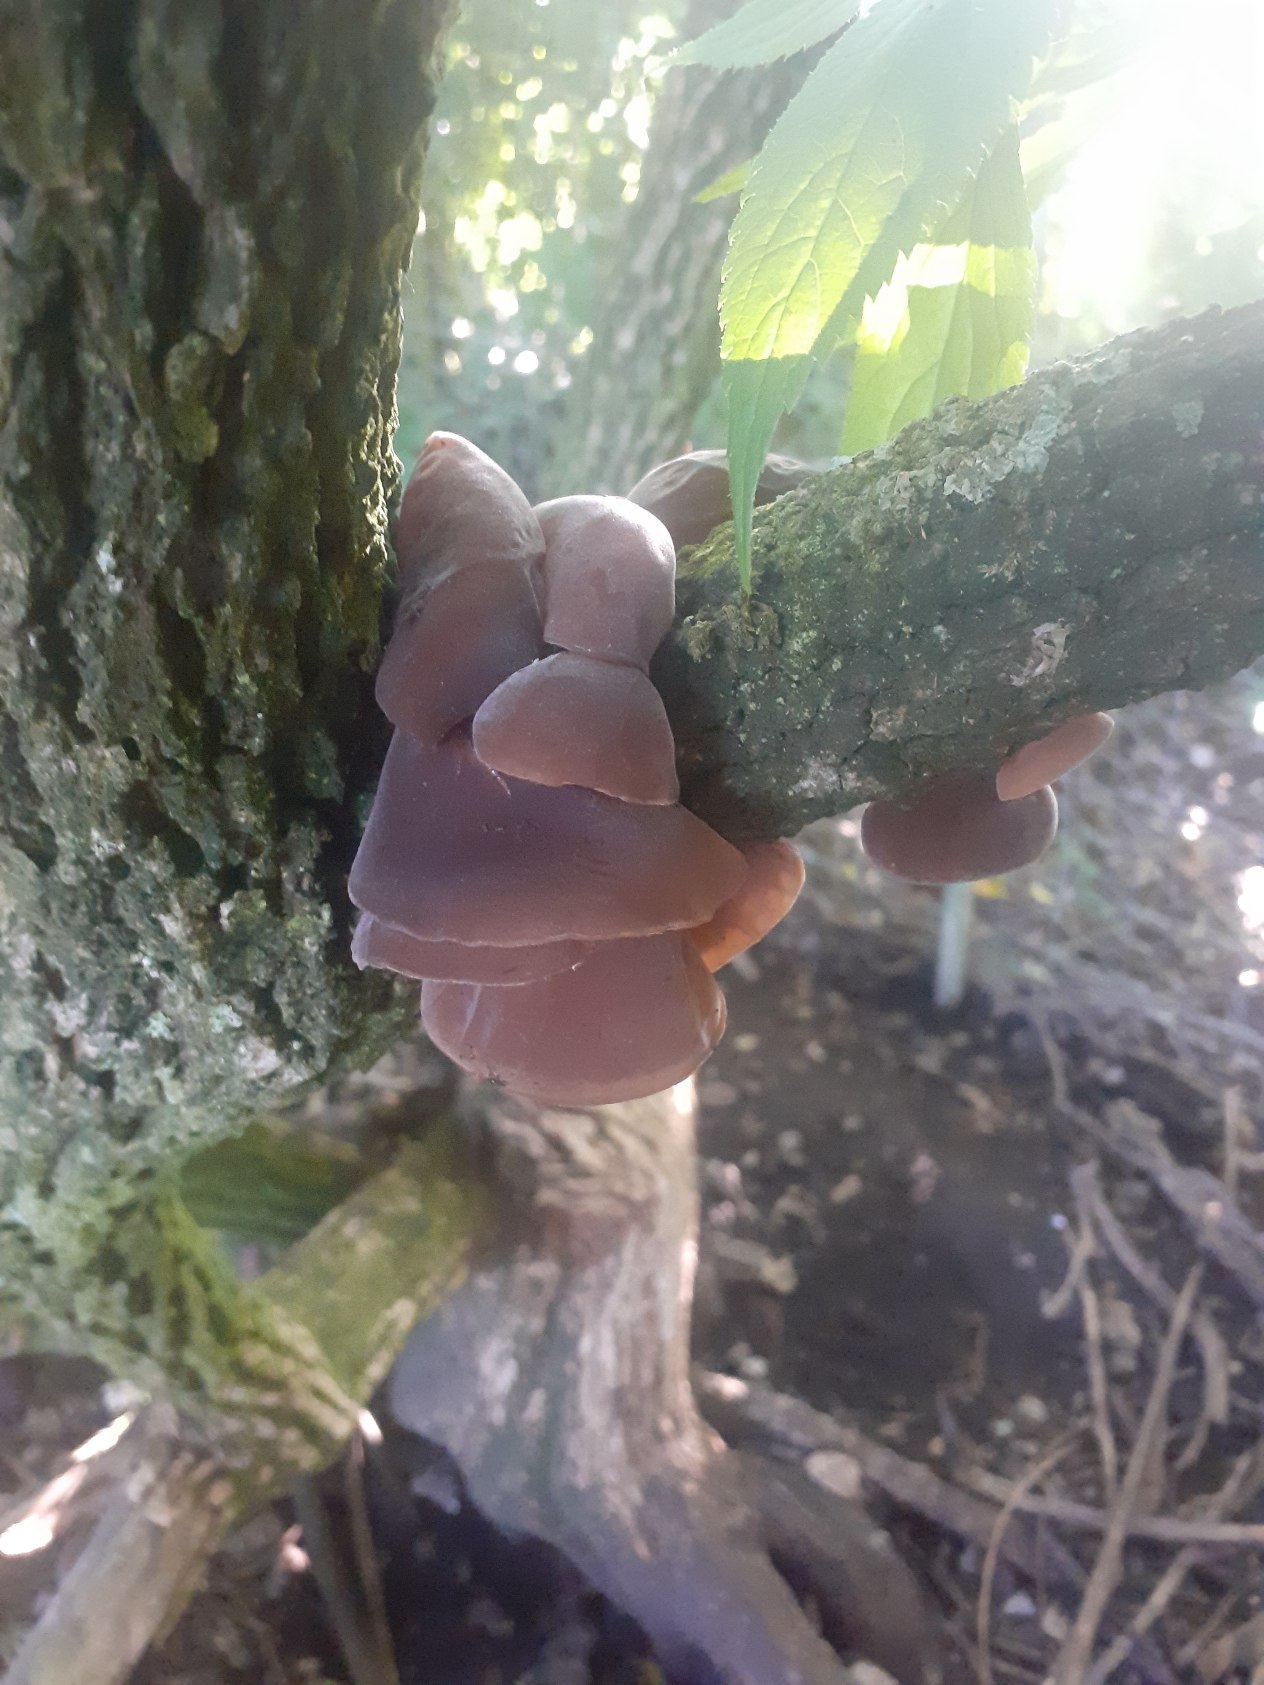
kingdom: Fungi
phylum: Basidiomycota
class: Agaricomycetes
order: Auriculariales
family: Auriculariaceae
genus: Auricularia
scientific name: Auricularia auricula-judae
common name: Almindelig judasøre
